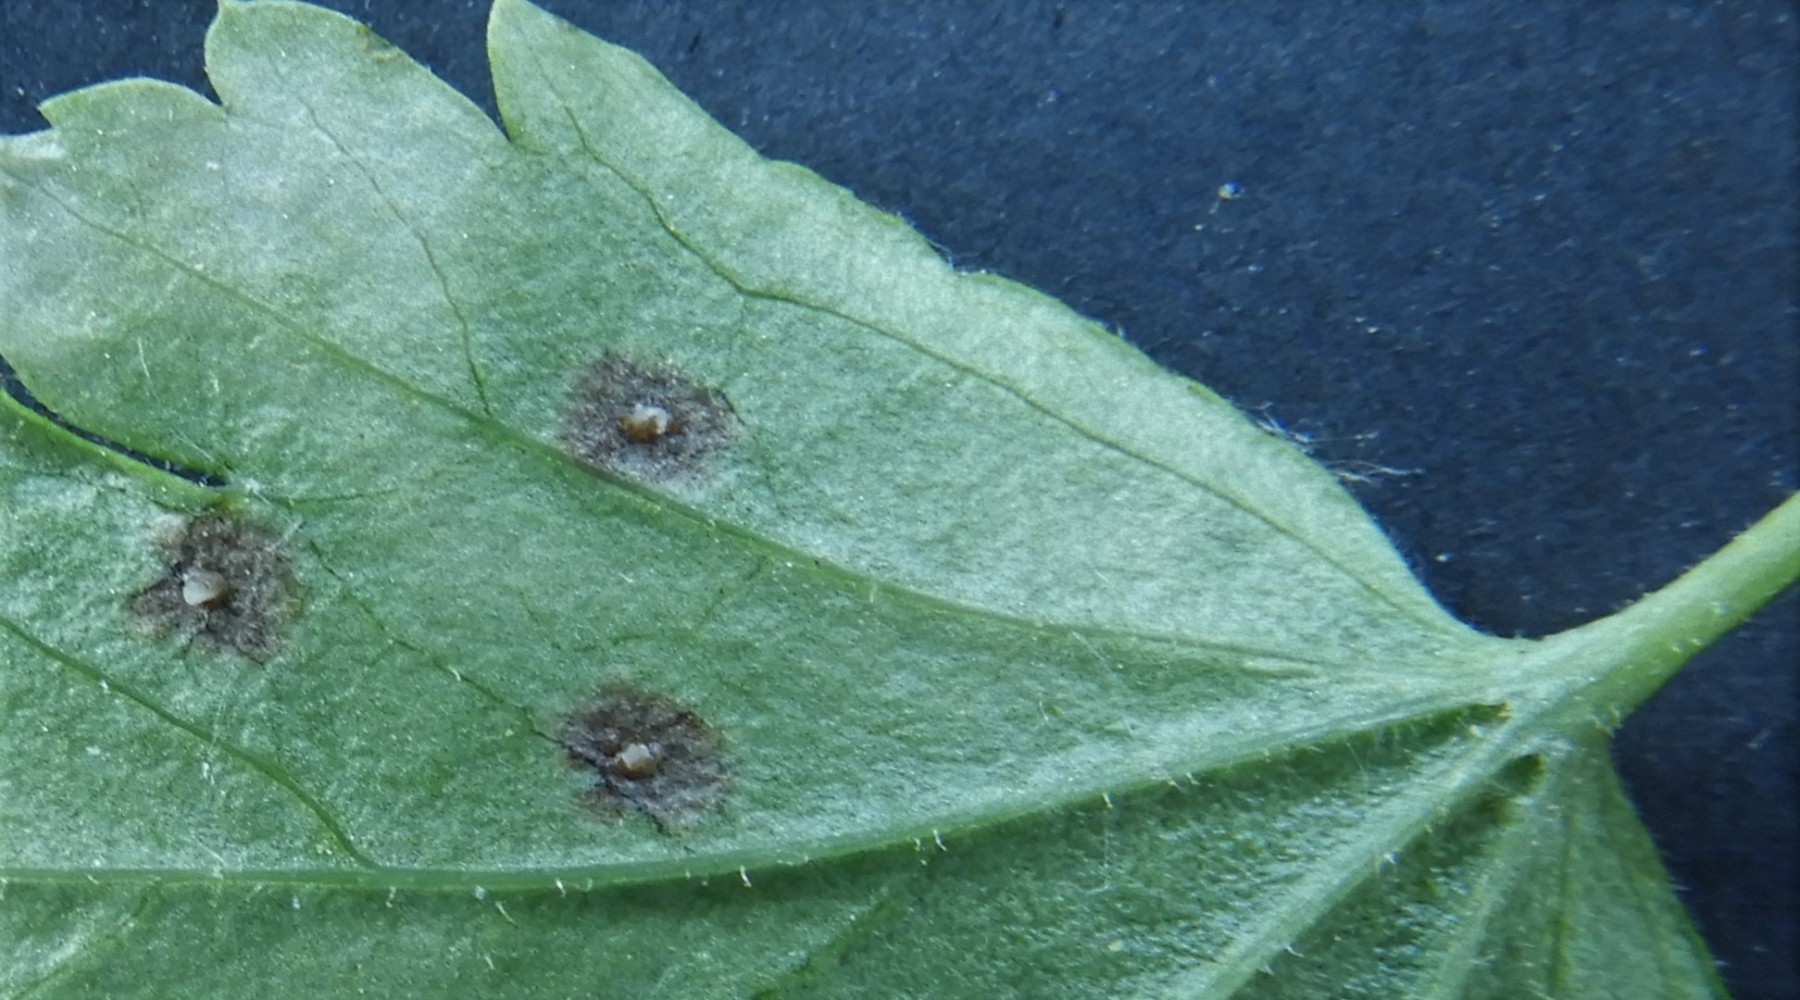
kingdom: Fungi
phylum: Ascomycota
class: Leotiomycetes
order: Helotiales
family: Drepanopezizaceae
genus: Drepanopeziza
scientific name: Drepanopeziza ribis
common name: ribs-bladpletskive
